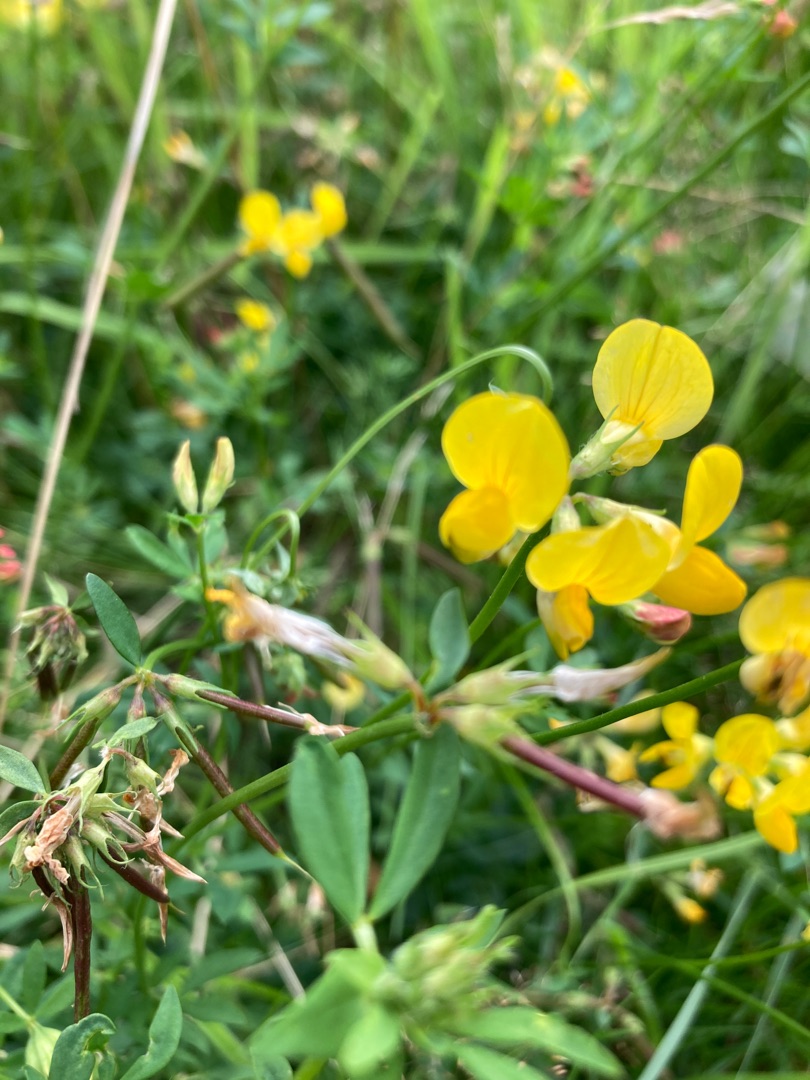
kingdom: Plantae
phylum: Tracheophyta
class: Magnoliopsida
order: Fabales
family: Fabaceae
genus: Lotus
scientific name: Lotus corniculatus
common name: Almindelig kællingetand
